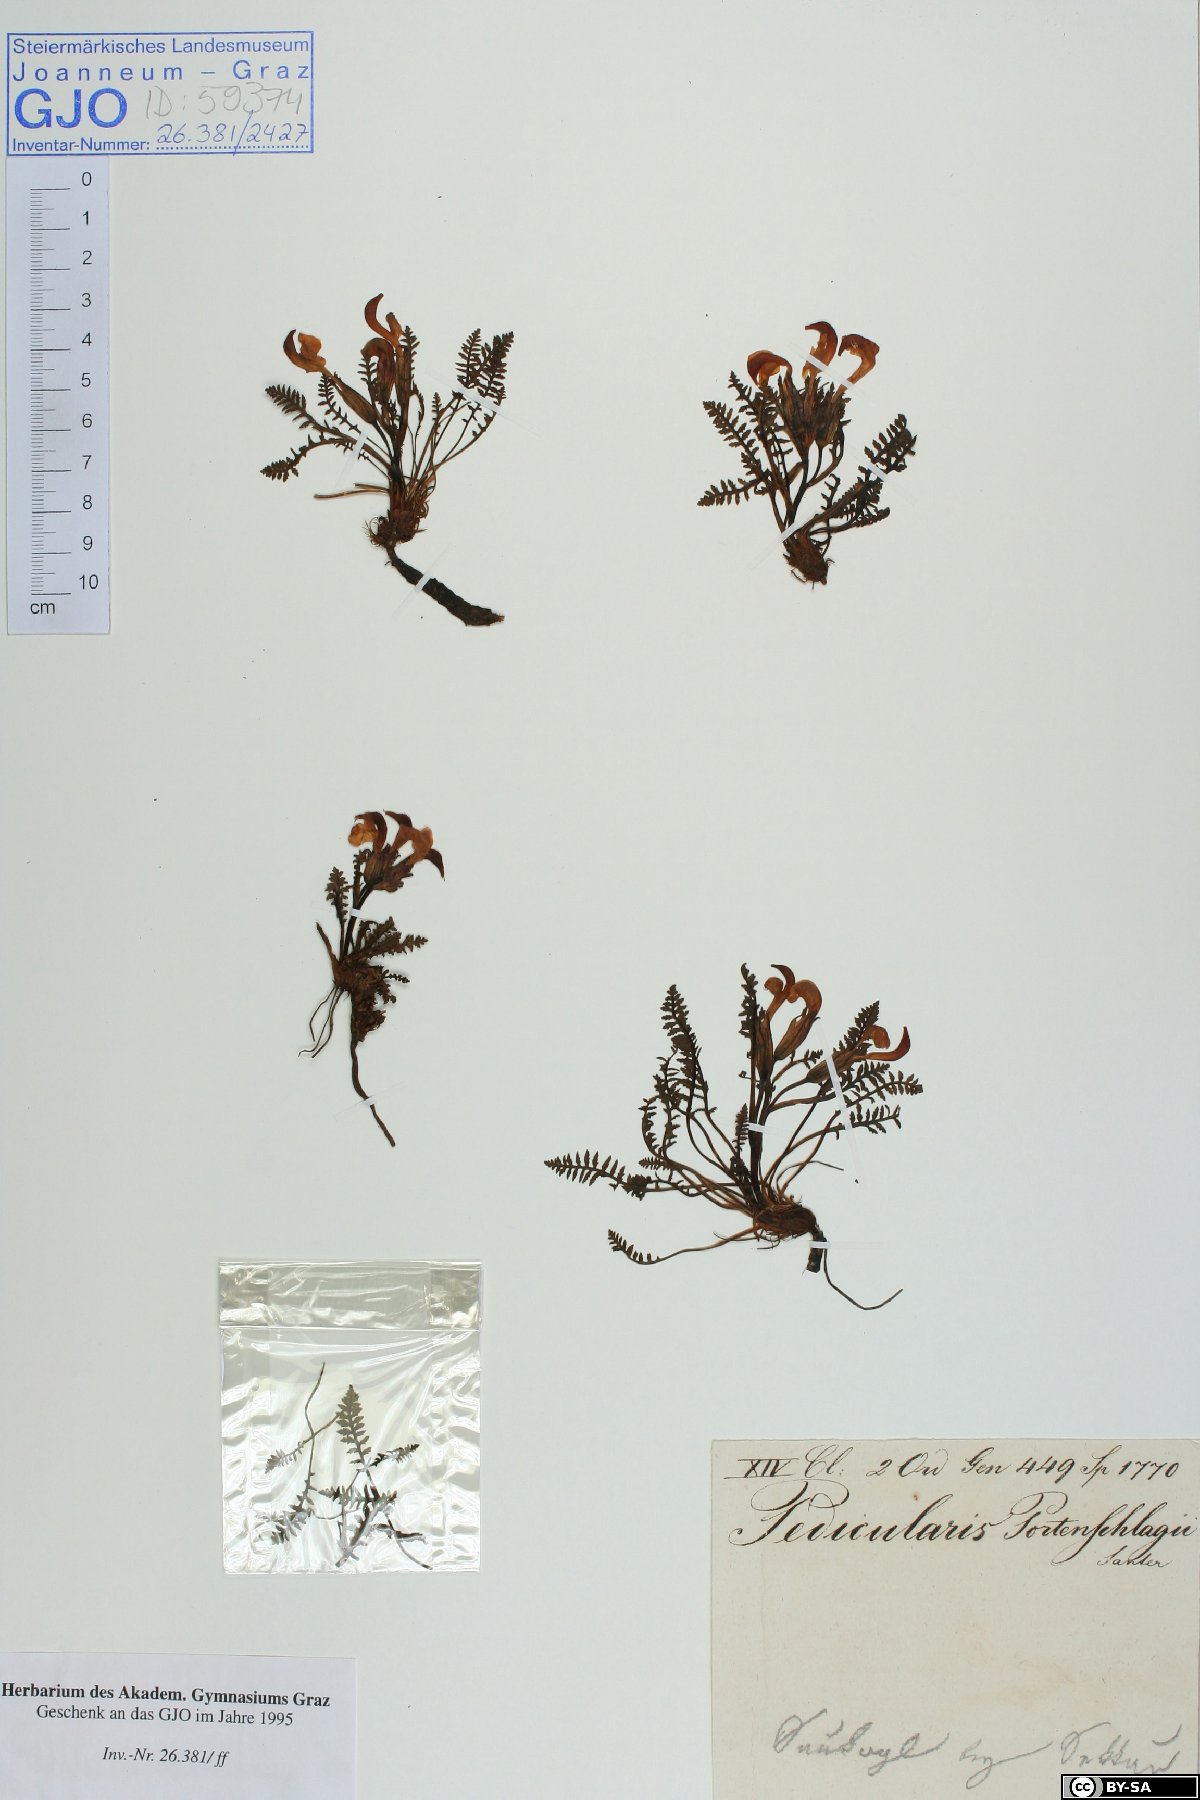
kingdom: Plantae
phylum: Tracheophyta
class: Magnoliopsida
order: Lamiales
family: Orobanchaceae
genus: Pedicularis
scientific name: Pedicularis portenschlagii
